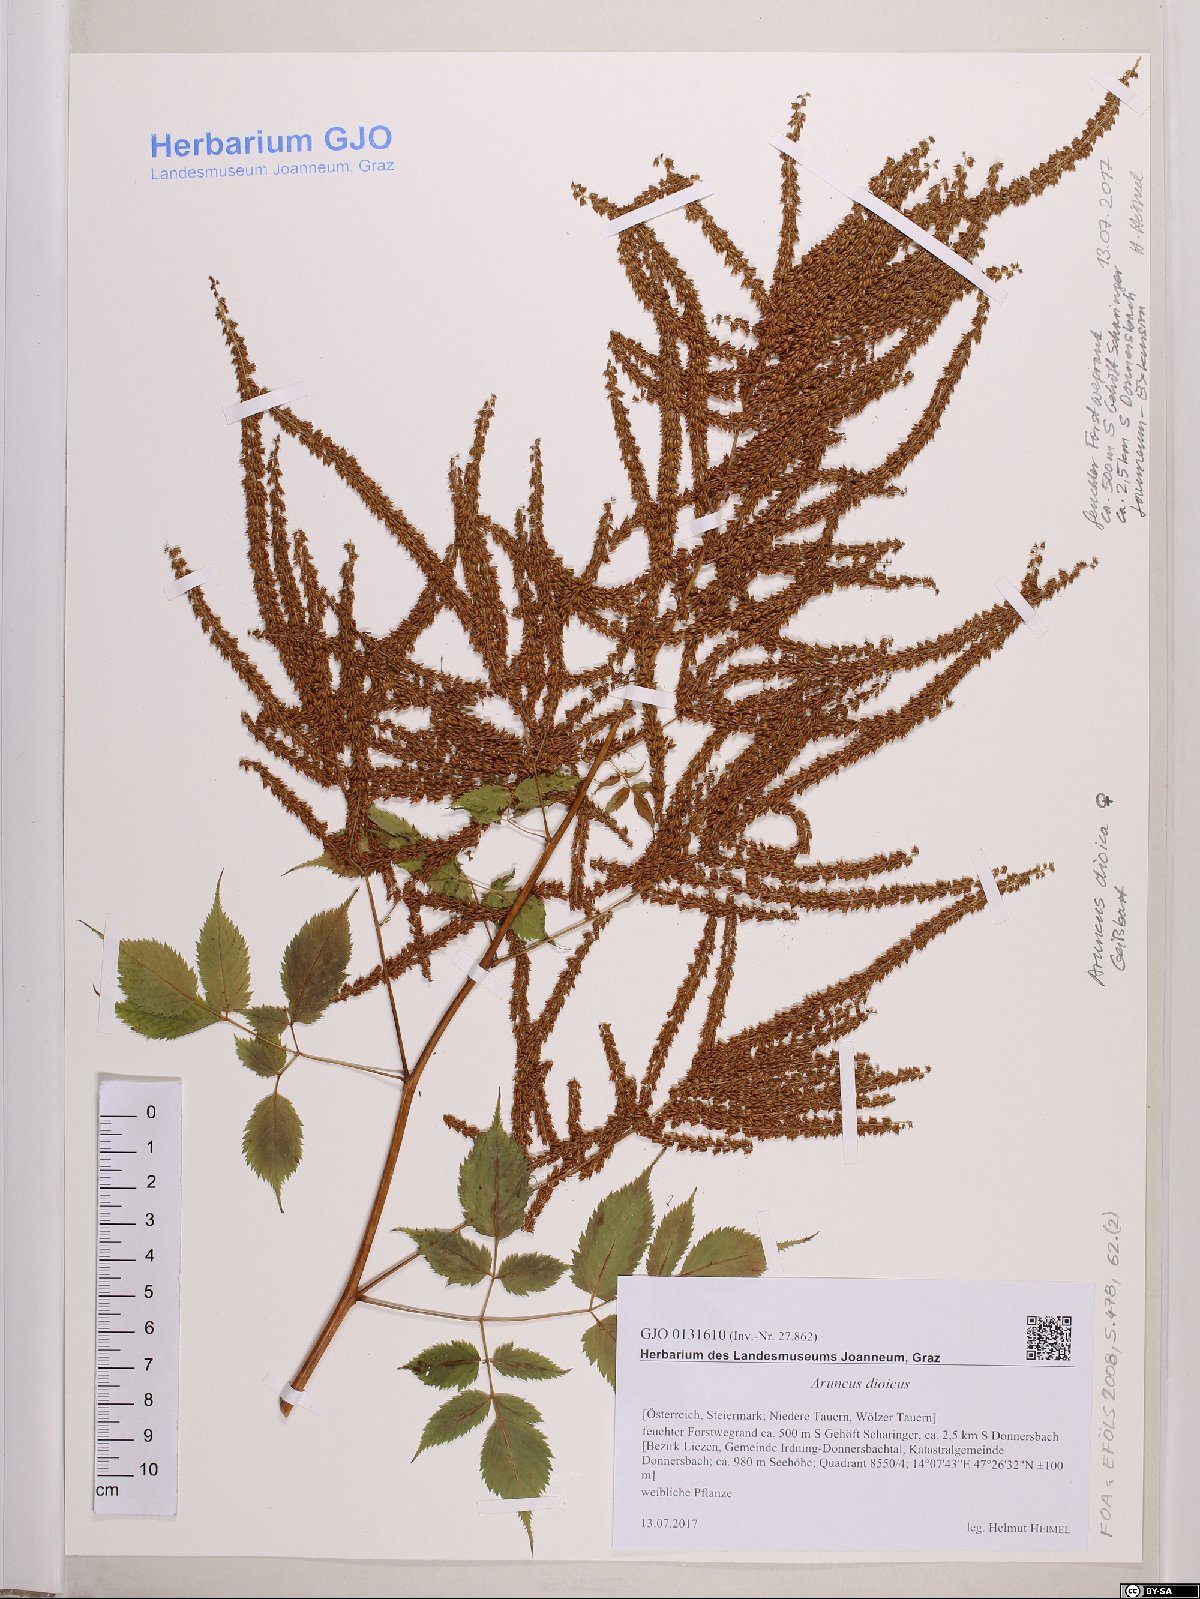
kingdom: Plantae
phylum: Tracheophyta
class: Magnoliopsida
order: Rosales
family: Rosaceae
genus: Aruncus
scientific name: Aruncus dioicus
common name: Buck's-beard
